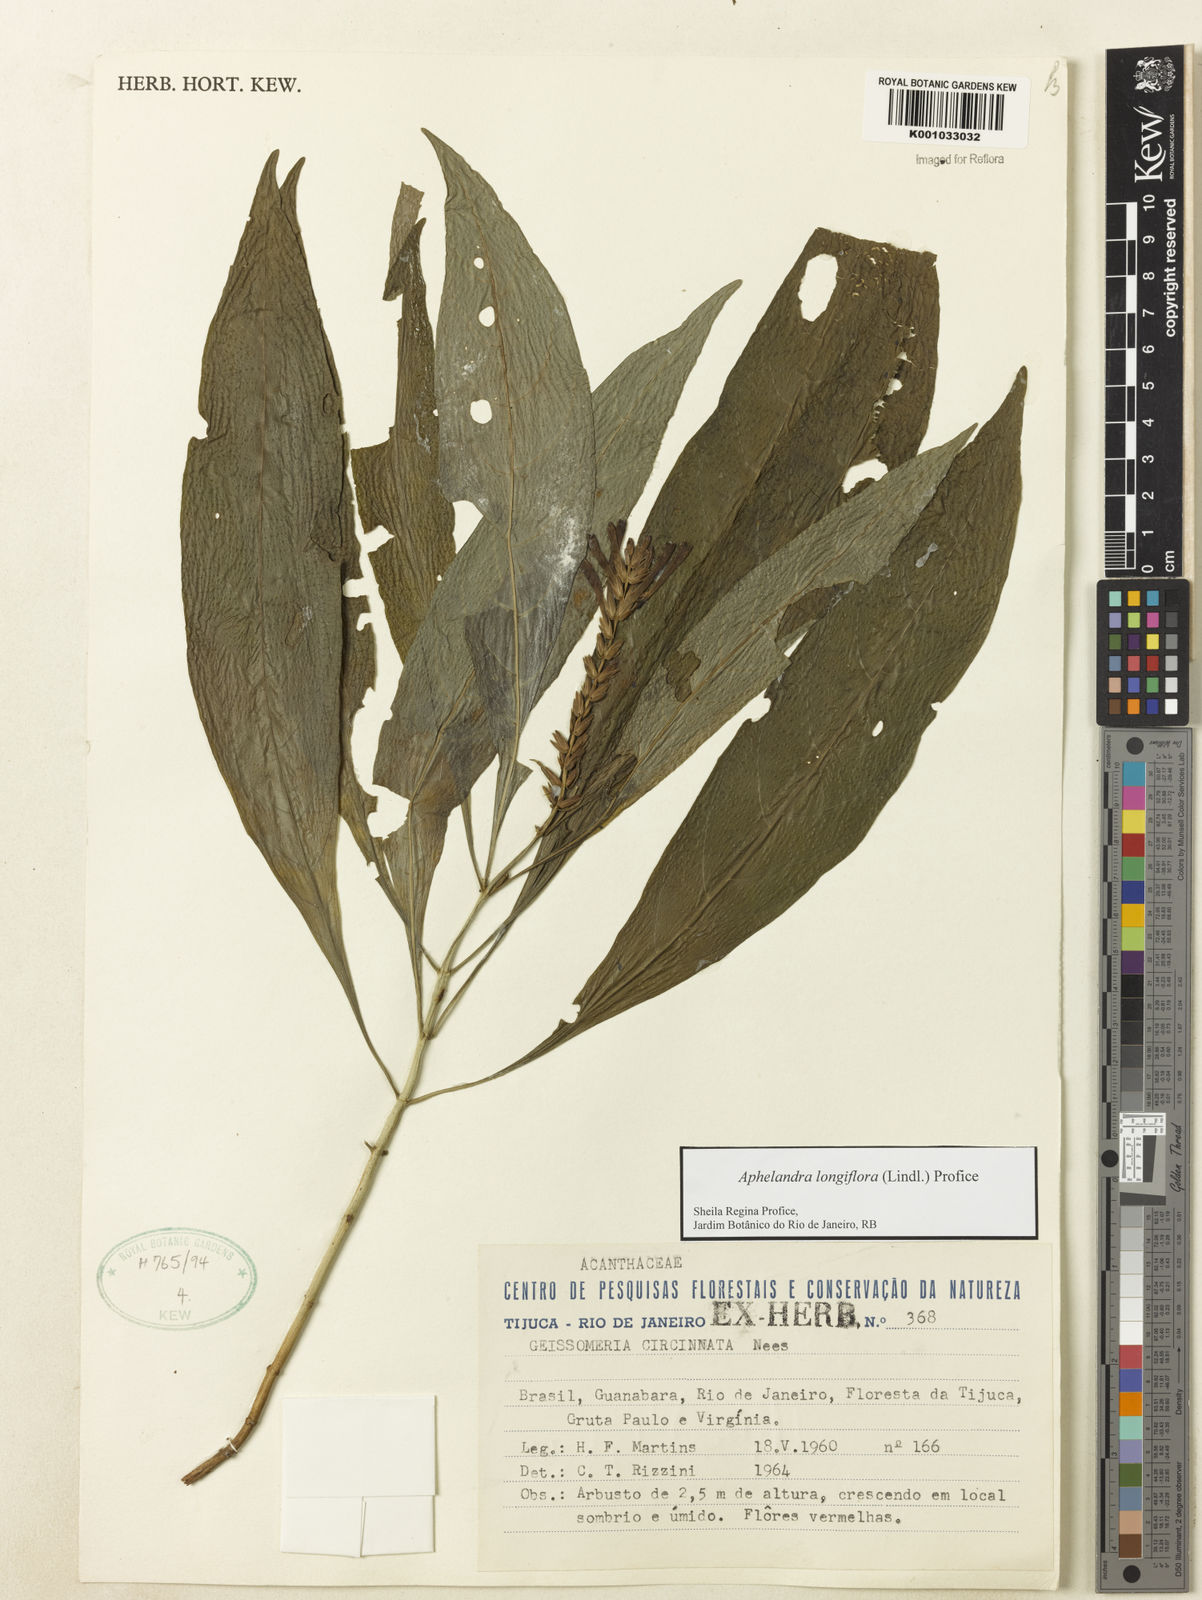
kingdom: Plantae
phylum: Tracheophyta
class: Magnoliopsida
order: Lamiales
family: Acanthaceae
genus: Aphelandra
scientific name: Aphelandra longiflora
